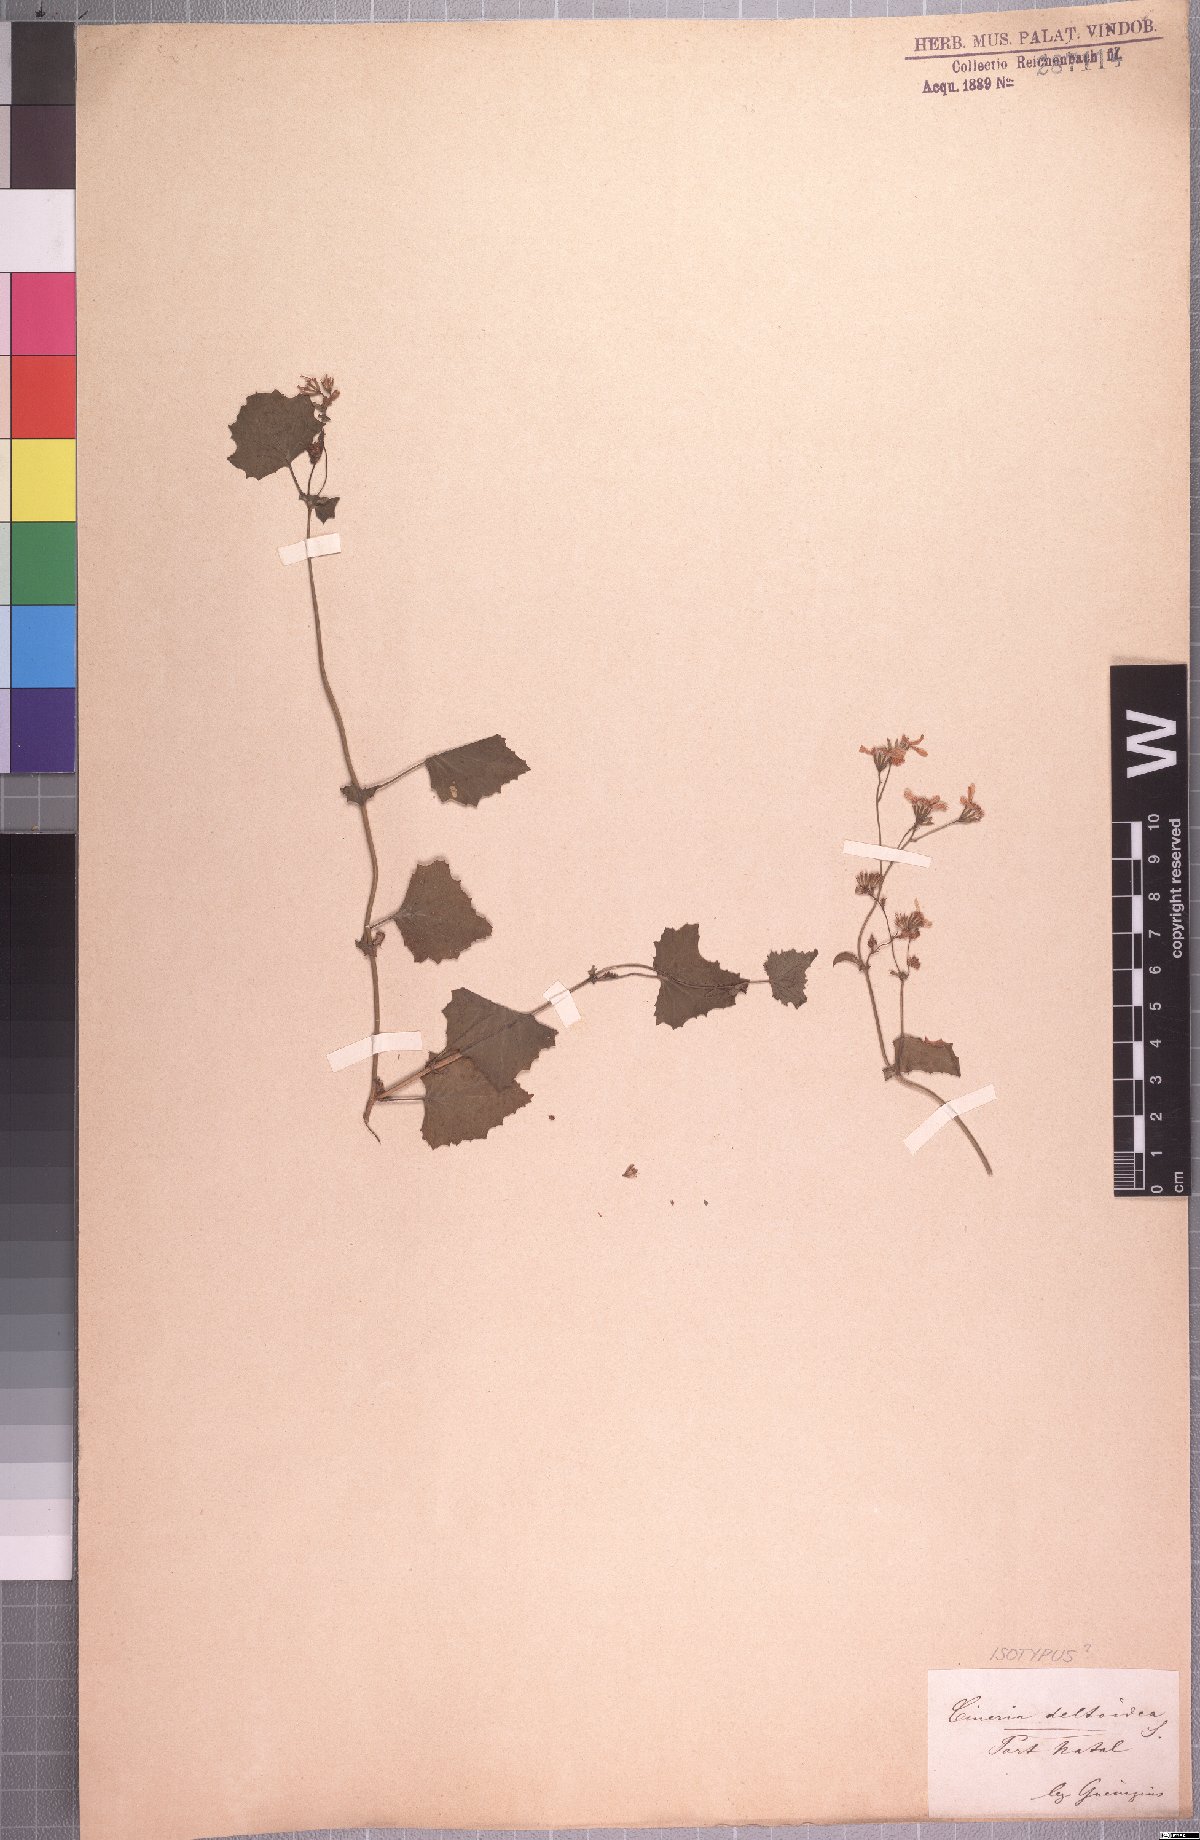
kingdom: Plantae
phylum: Tracheophyta
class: Magnoliopsida
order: Asterales
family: Asteraceae
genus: Cineraria
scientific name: Cineraria deltoidea
